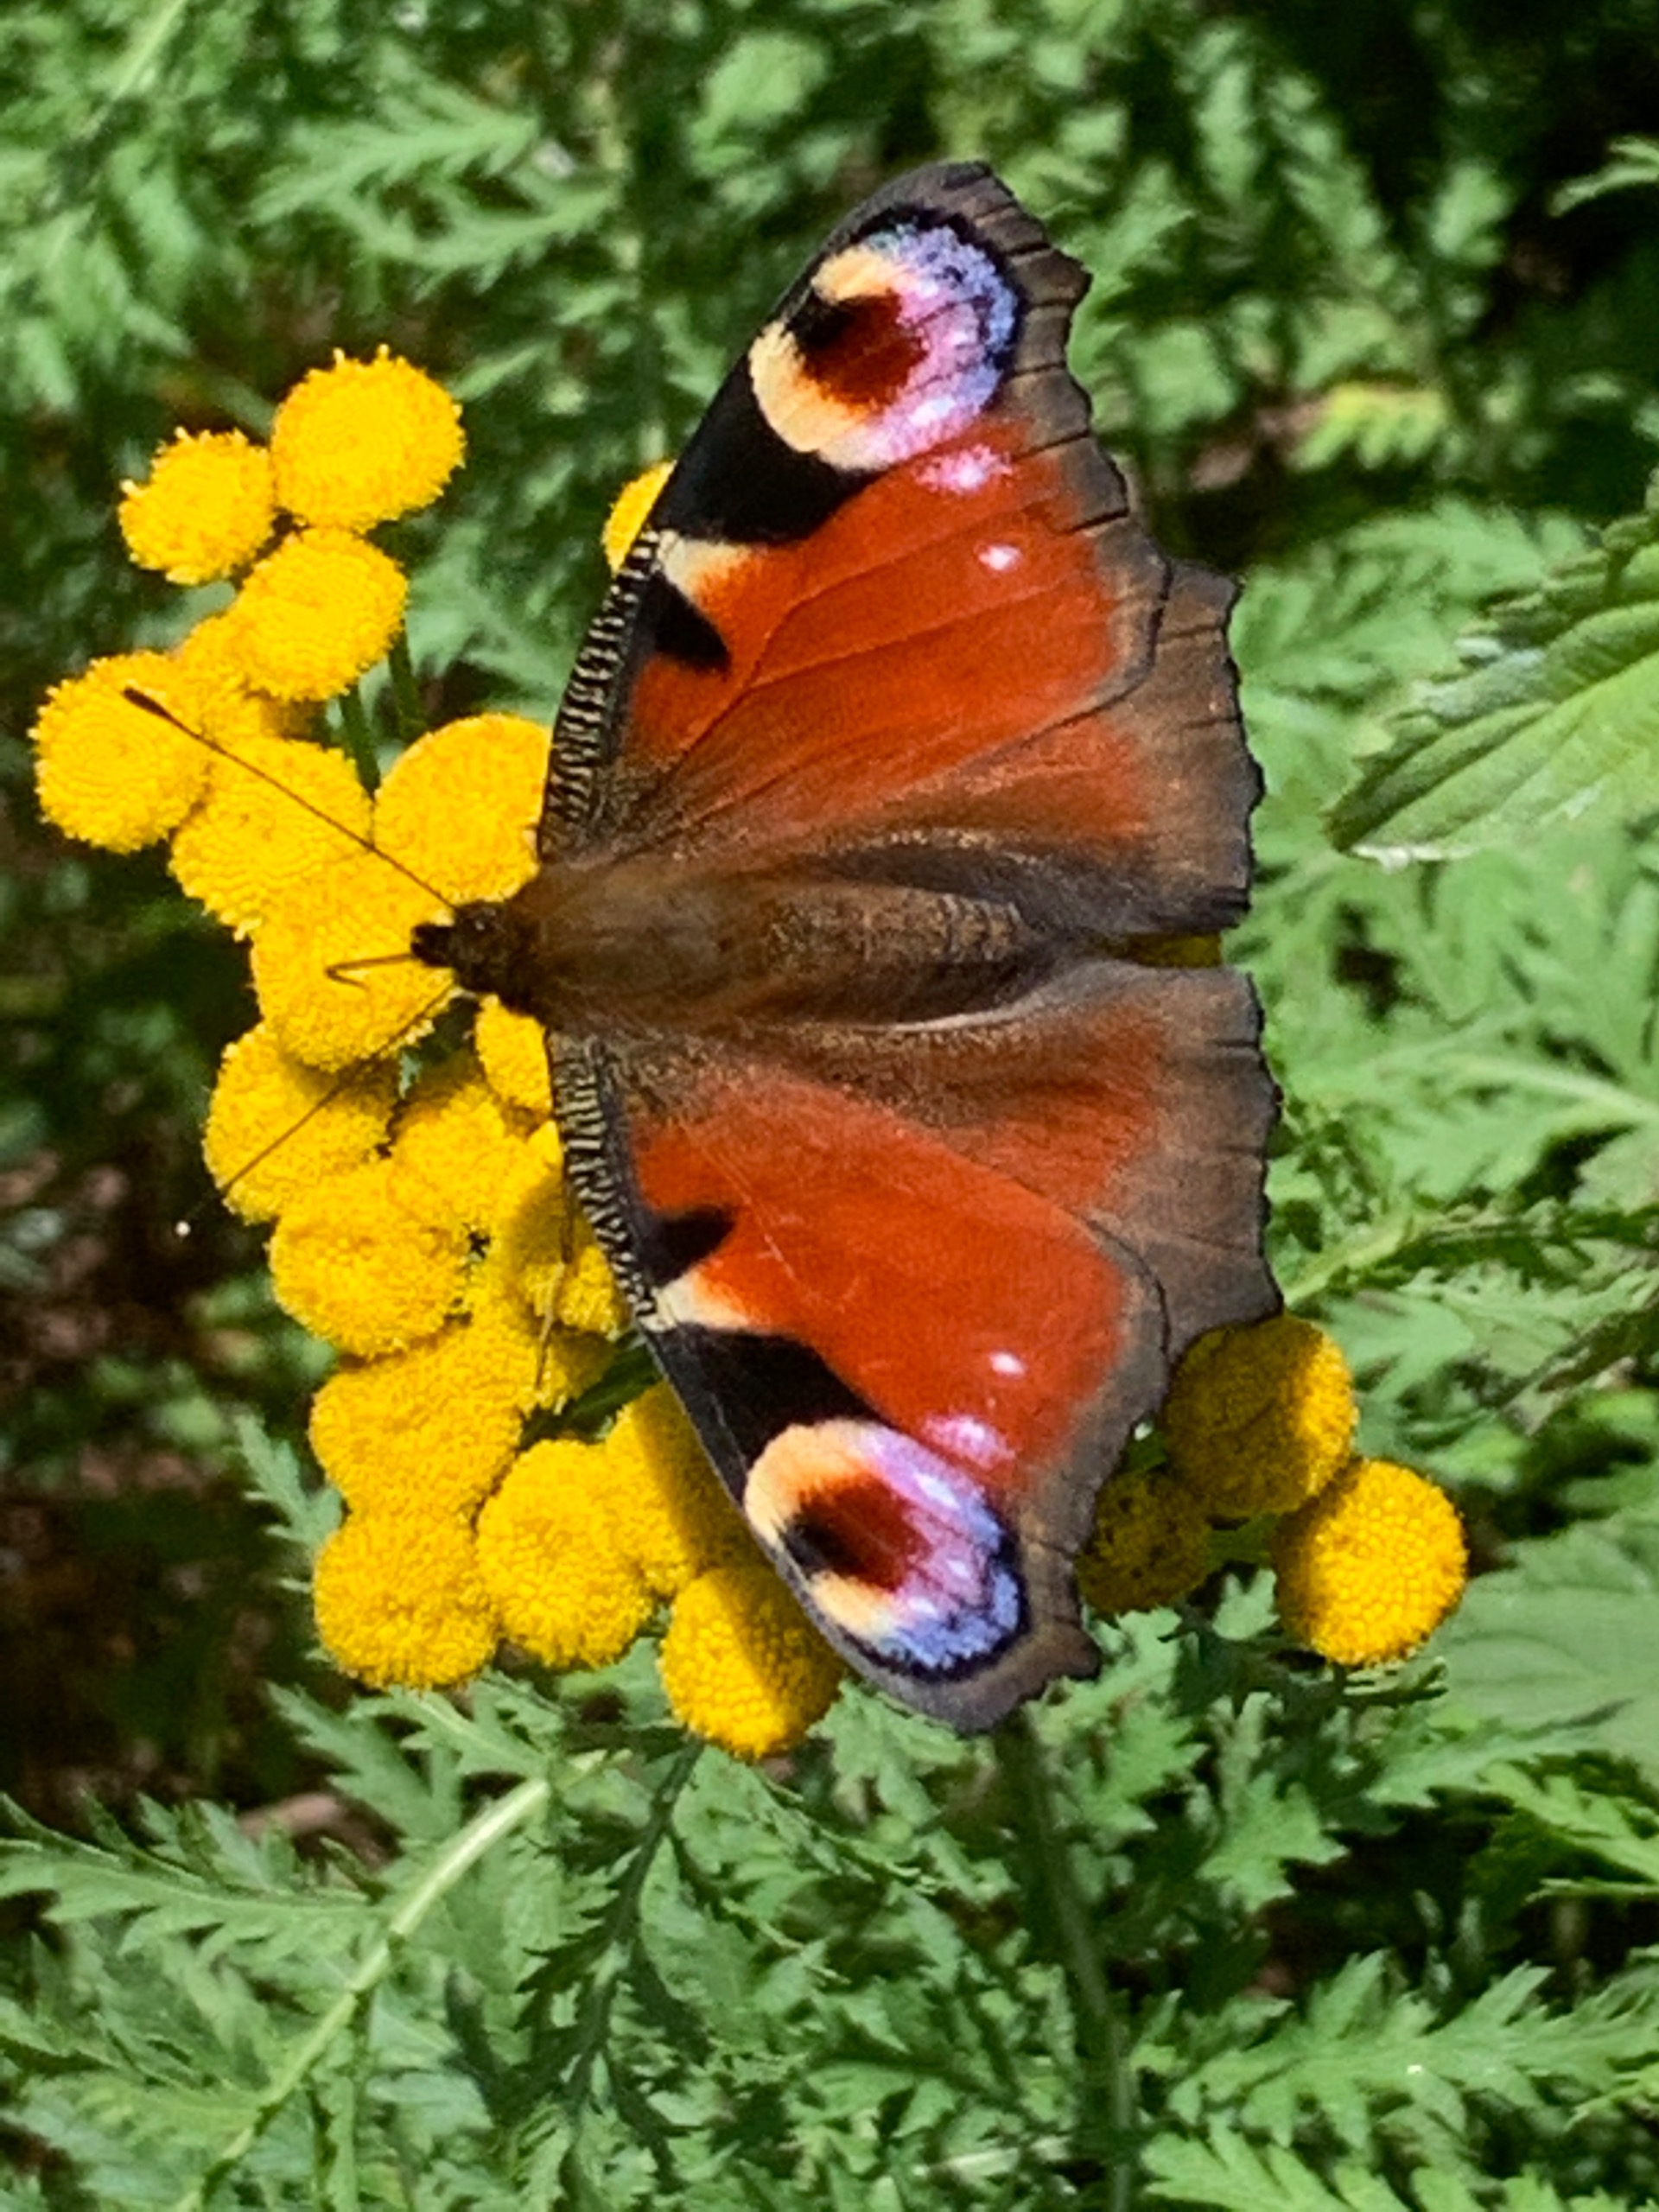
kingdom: Animalia
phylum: Arthropoda
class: Insecta
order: Lepidoptera
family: Nymphalidae
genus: Aglais
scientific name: Aglais io
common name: Dagpåfugleøje
